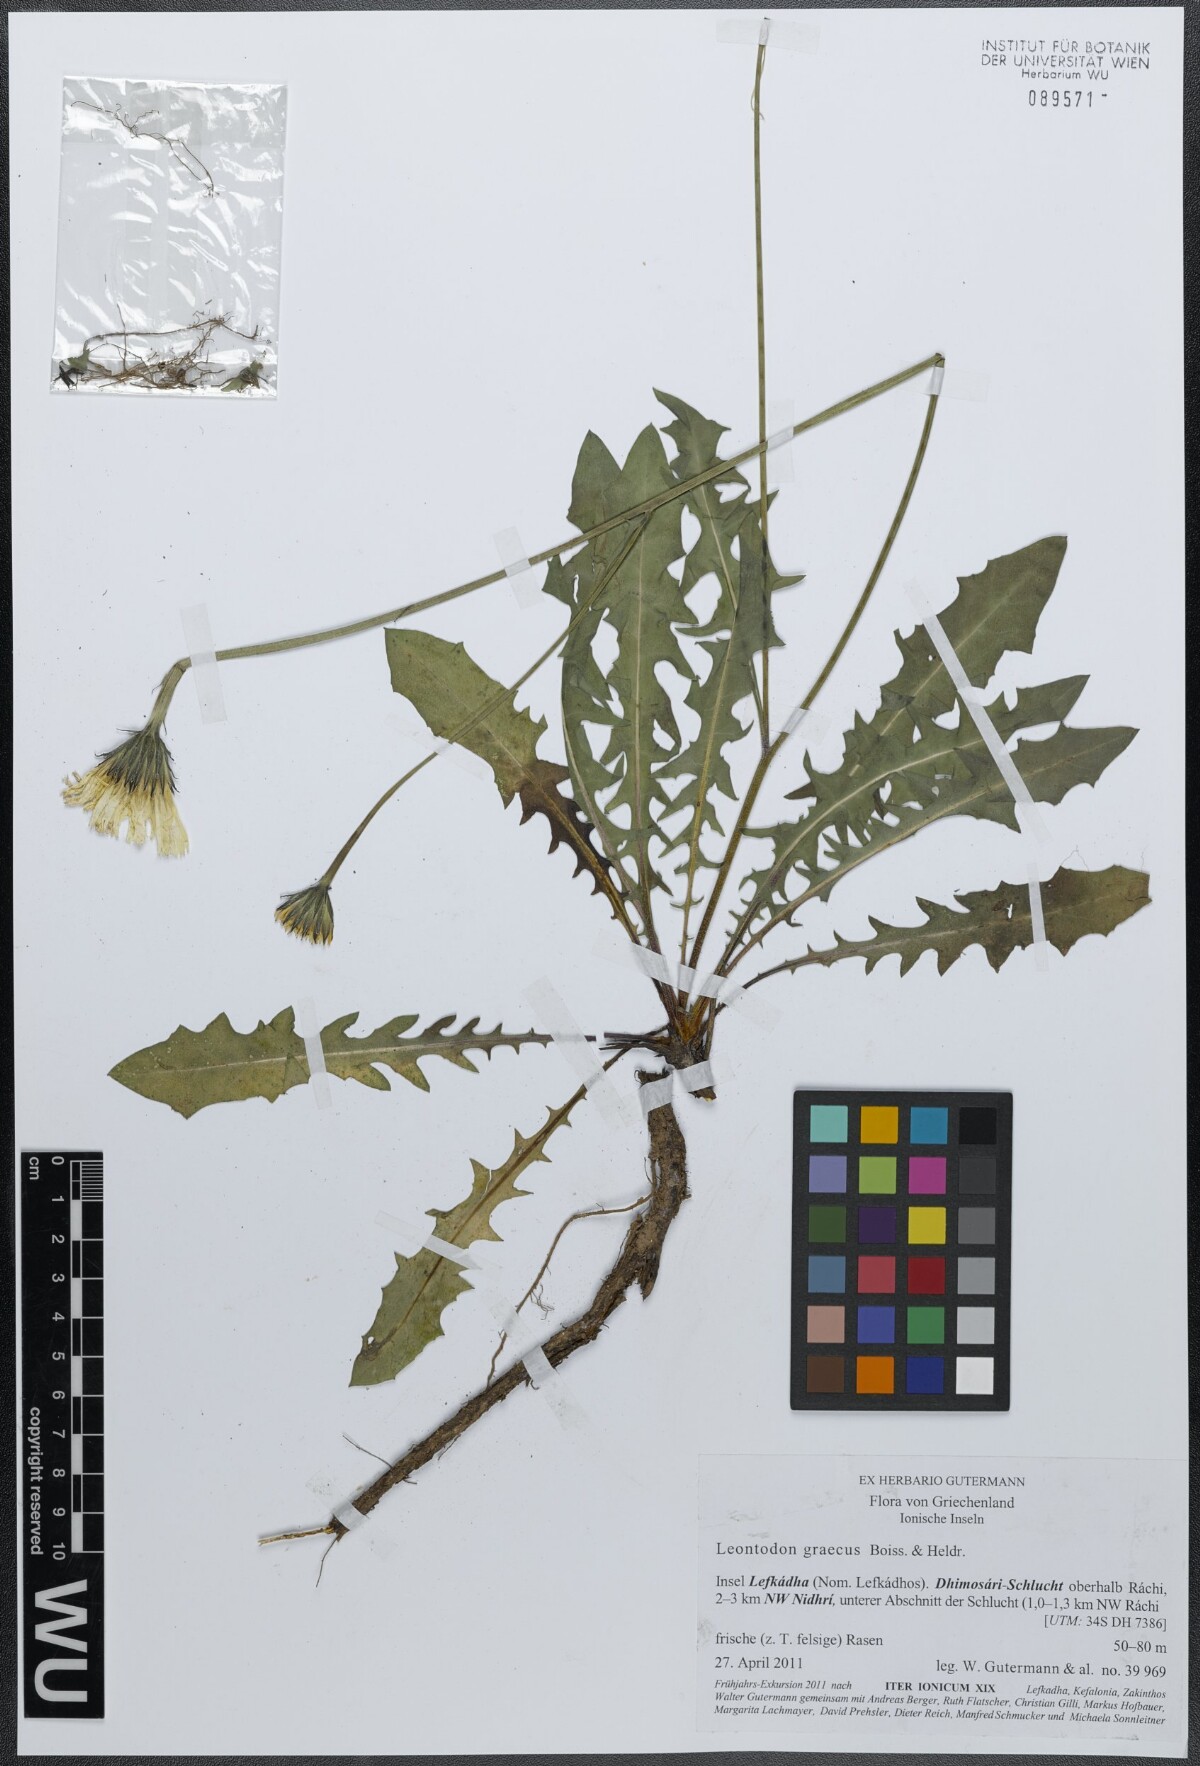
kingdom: Plantae
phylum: Tracheophyta
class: Magnoliopsida
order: Asterales
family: Asteraceae
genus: Leontodon
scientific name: Leontodon graecus
